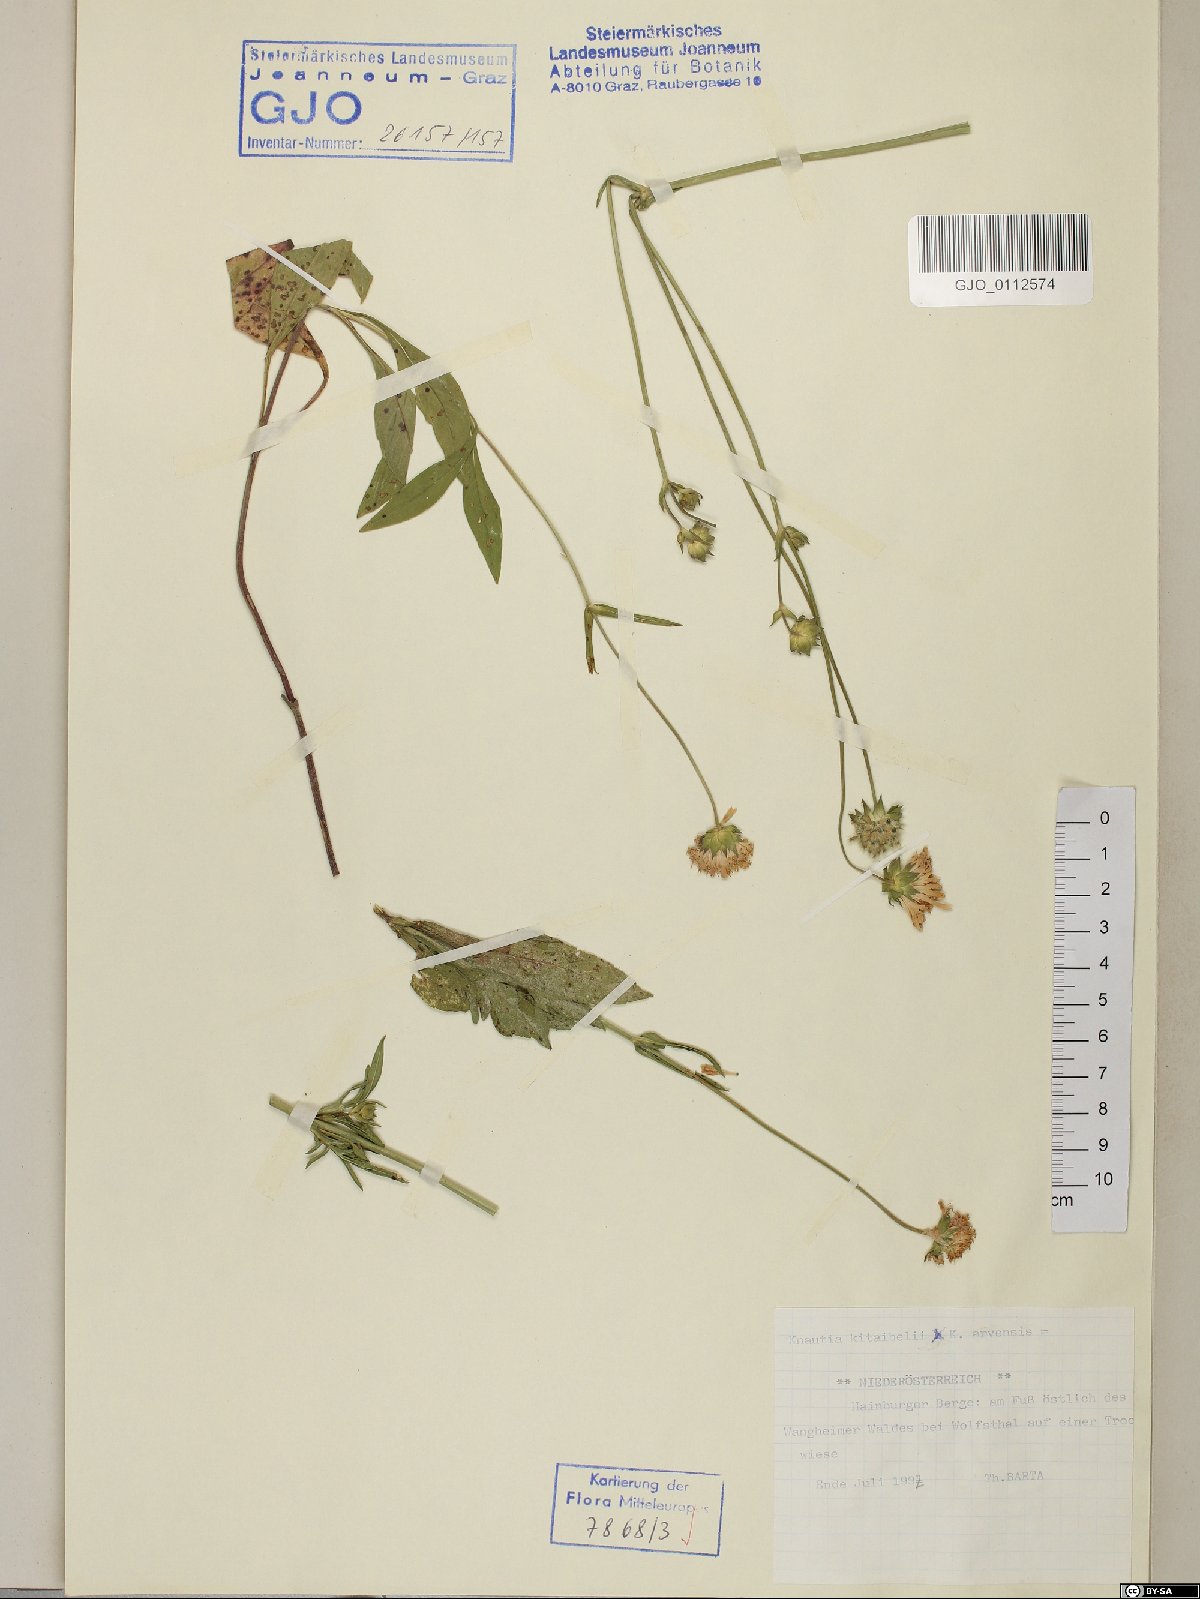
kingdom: Plantae
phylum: Tracheophyta
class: Magnoliopsida
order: Dipsacales
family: Dipsacaceae
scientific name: Dipsacaceae
